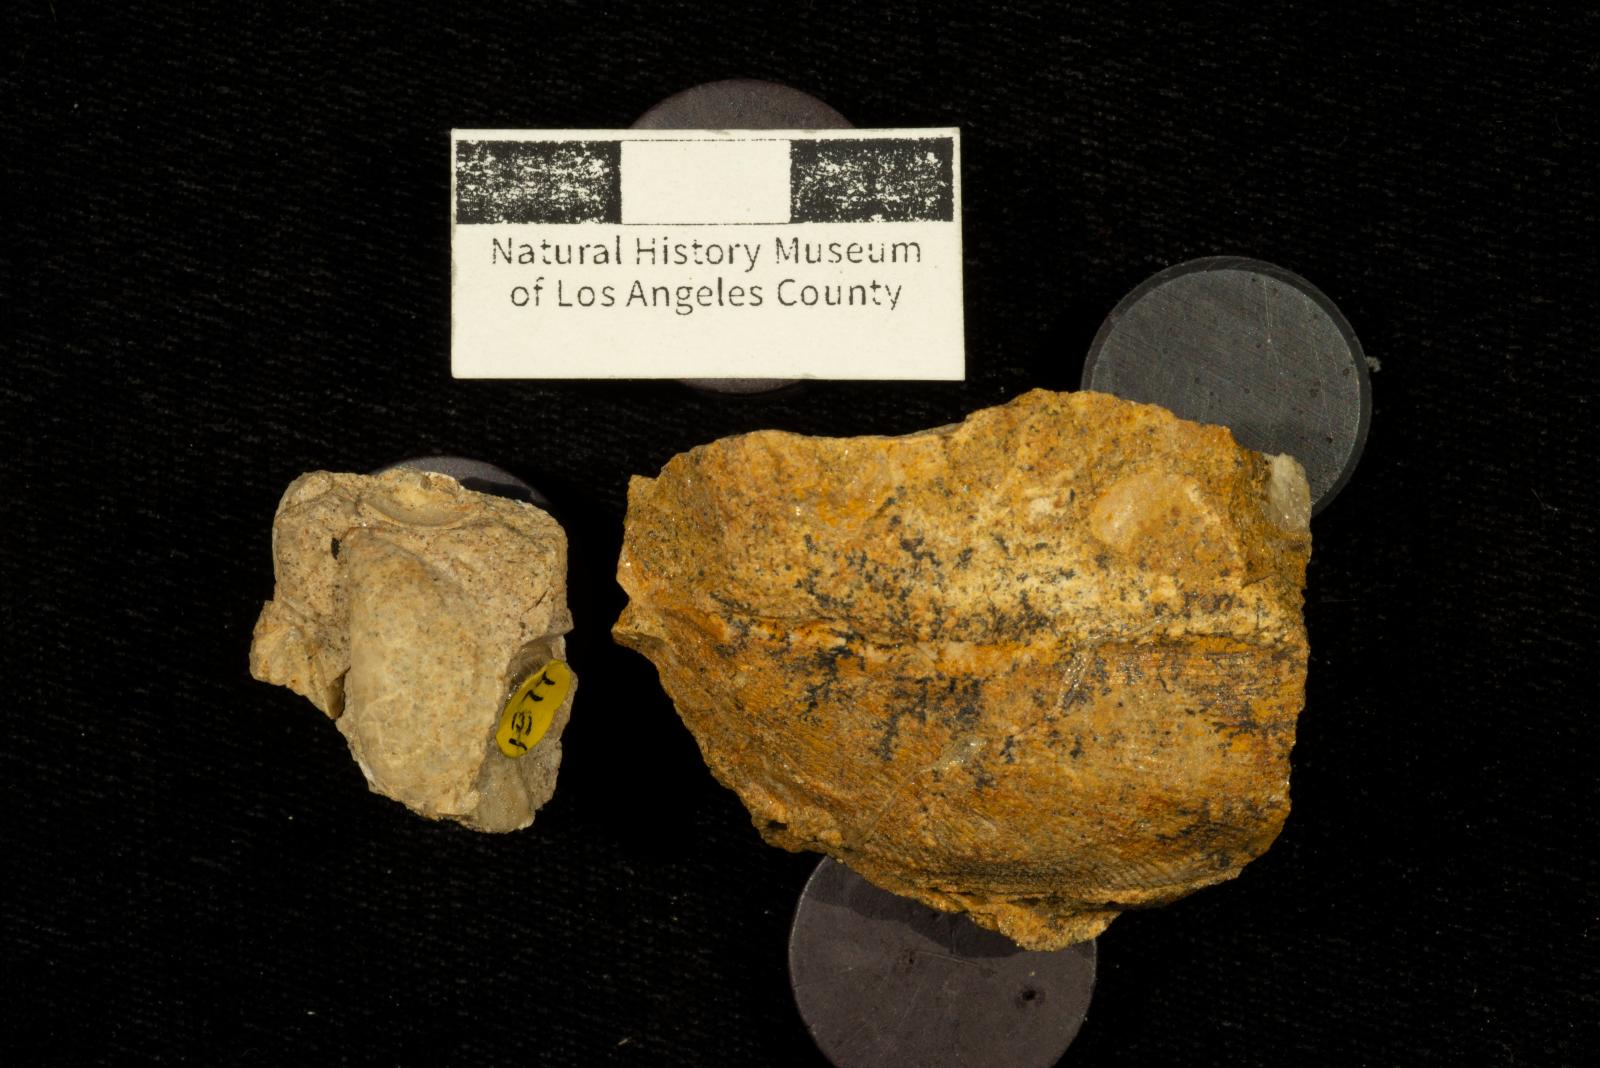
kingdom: Animalia
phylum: Mollusca
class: Bivalvia
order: Mytilida
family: Mytilidae
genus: Xenomytilus
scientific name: Xenomytilus fons
